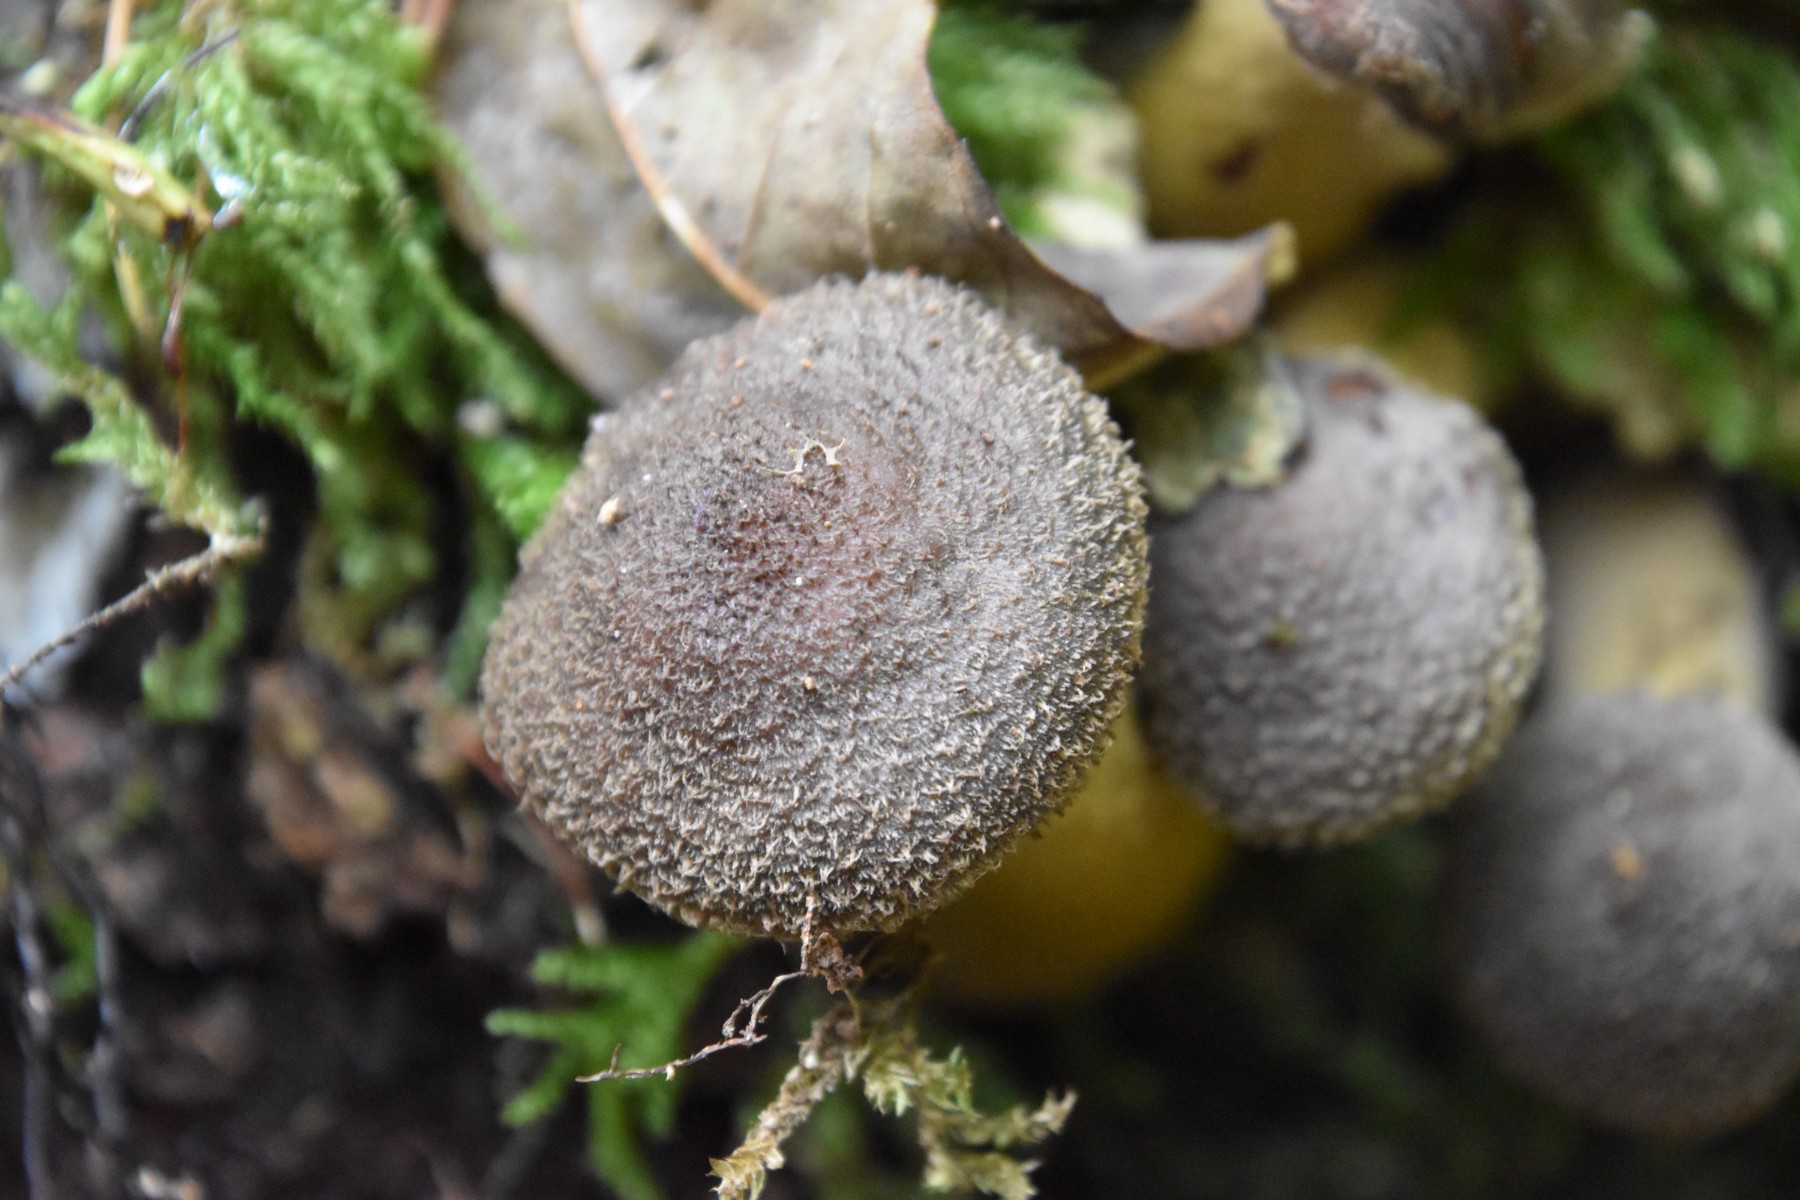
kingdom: Fungi
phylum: Basidiomycota
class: Agaricomycetes
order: Agaricales
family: Physalacriaceae
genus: Armillaria
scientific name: Armillaria lutea
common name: køllestokket honningsvamp
